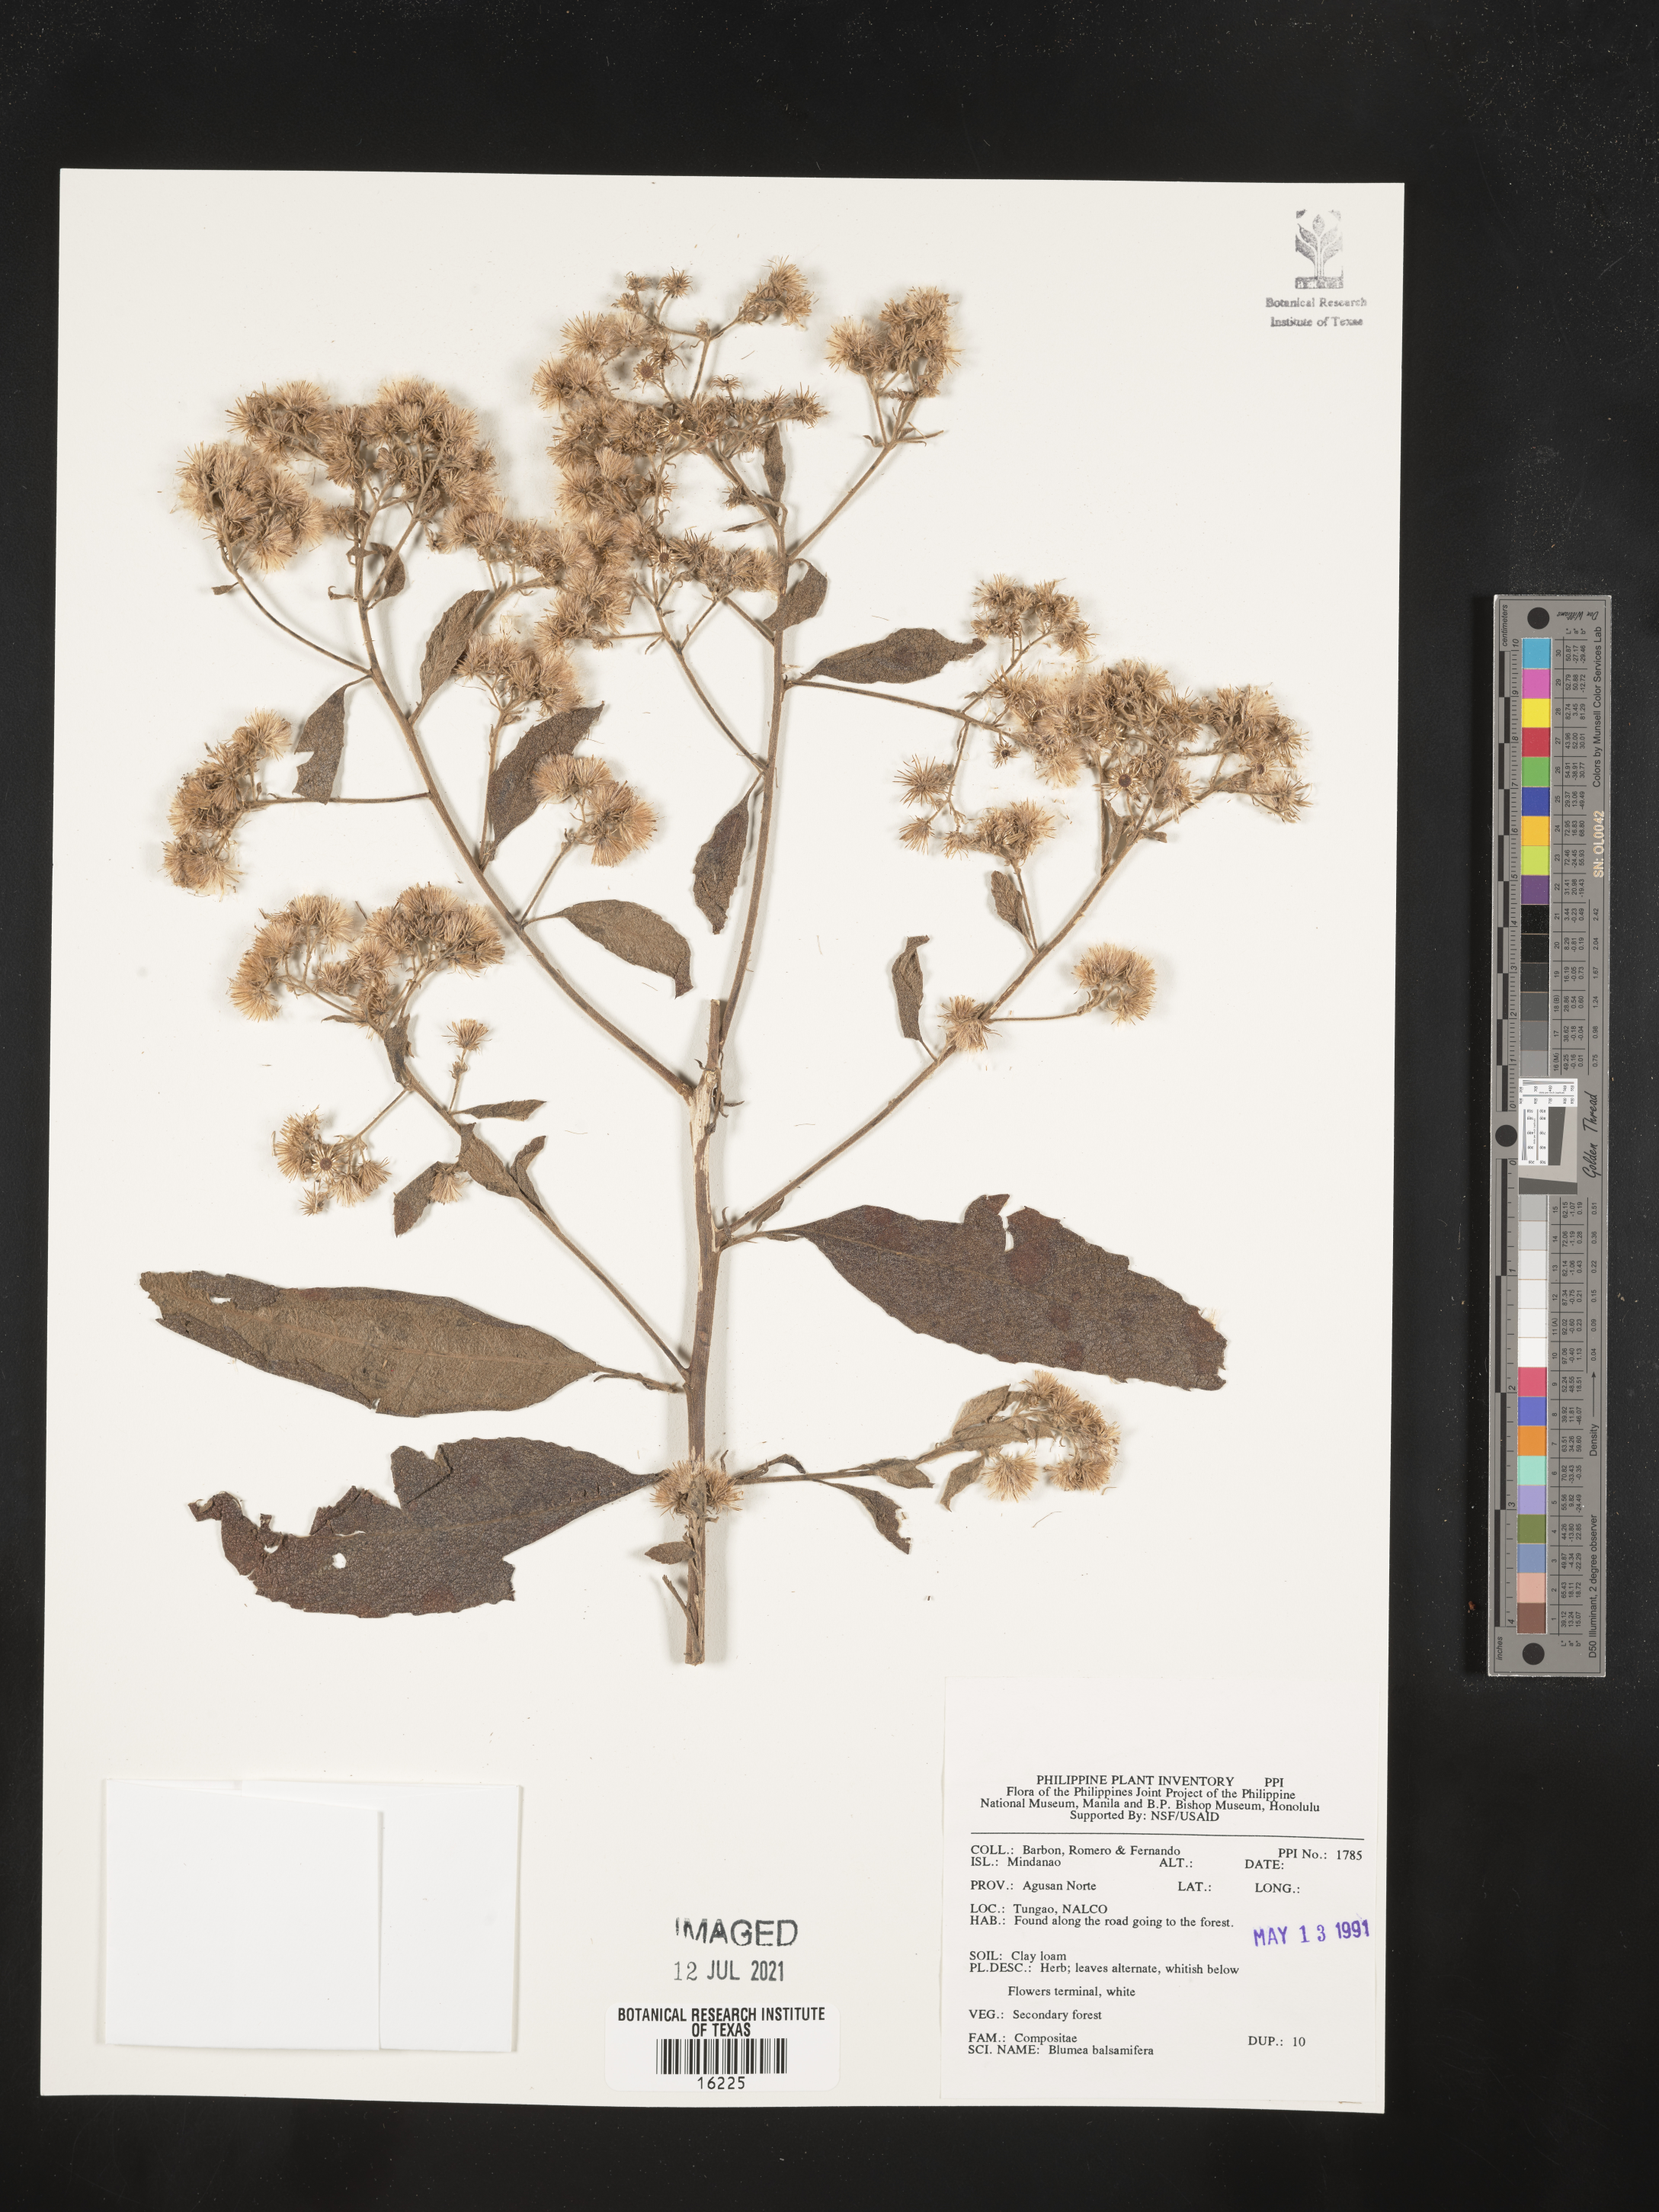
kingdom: Plantae
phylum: Tracheophyta
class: Magnoliopsida
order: Asterales
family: Asteraceae
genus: Blumea
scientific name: Blumea balsamifera
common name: Ngai camphor
